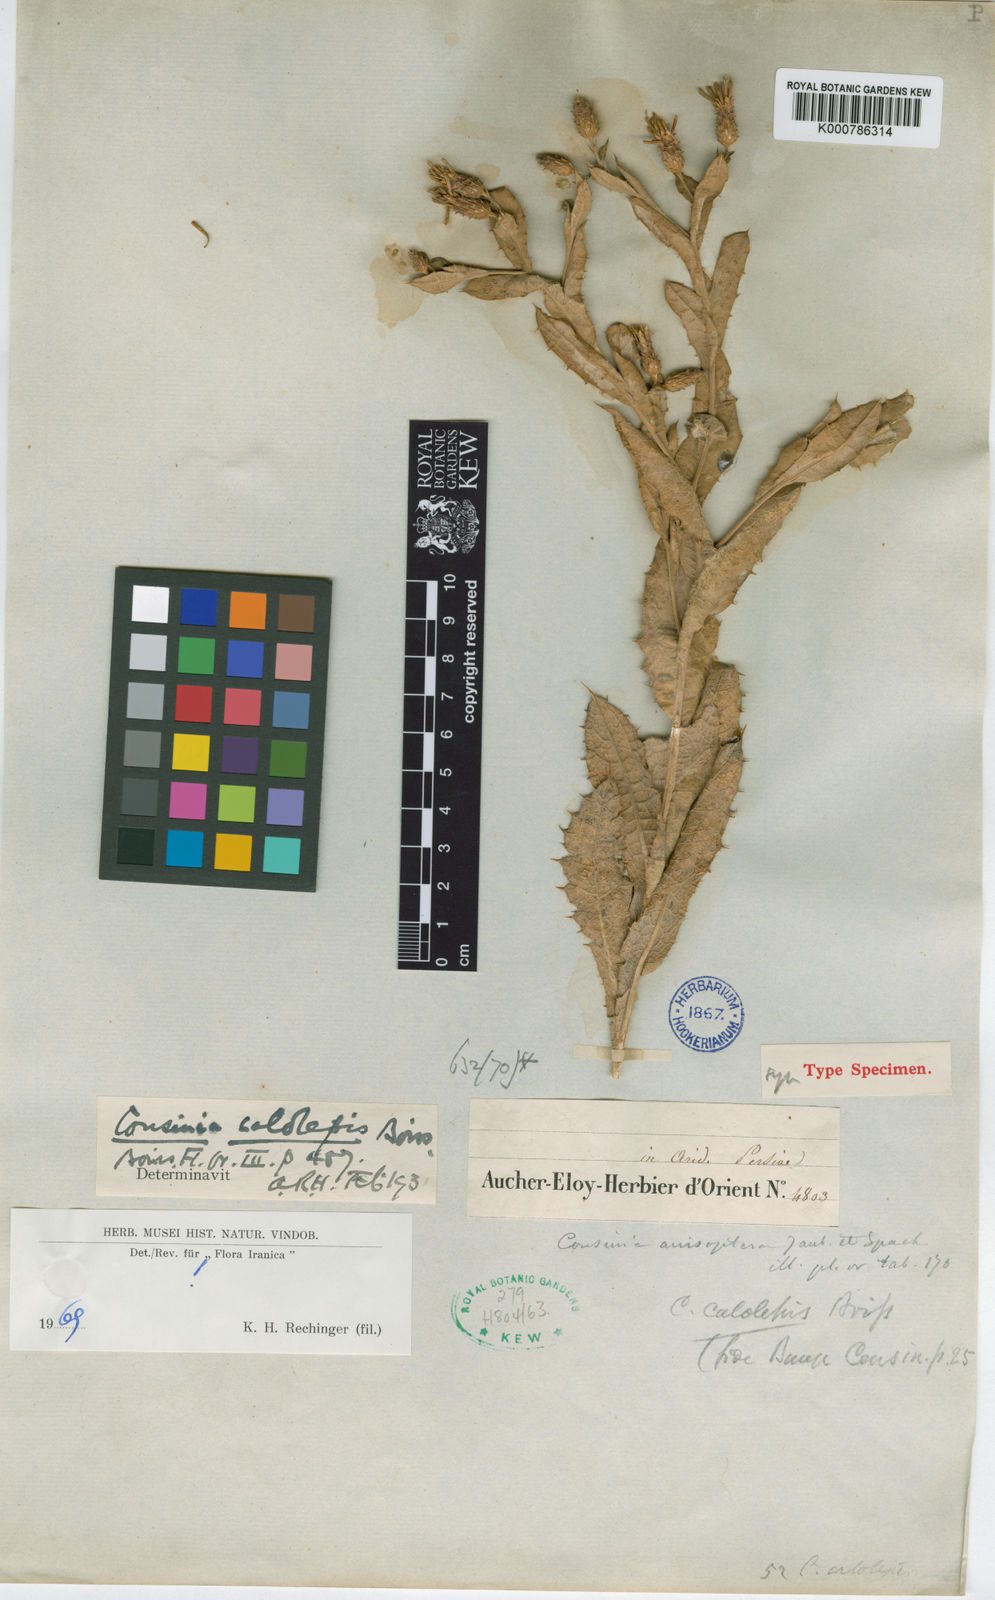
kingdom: Plantae
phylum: Tracheophyta
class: Magnoliopsida
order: Asterales
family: Asteraceae
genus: Cousinia
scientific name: Cousinia calolepis
